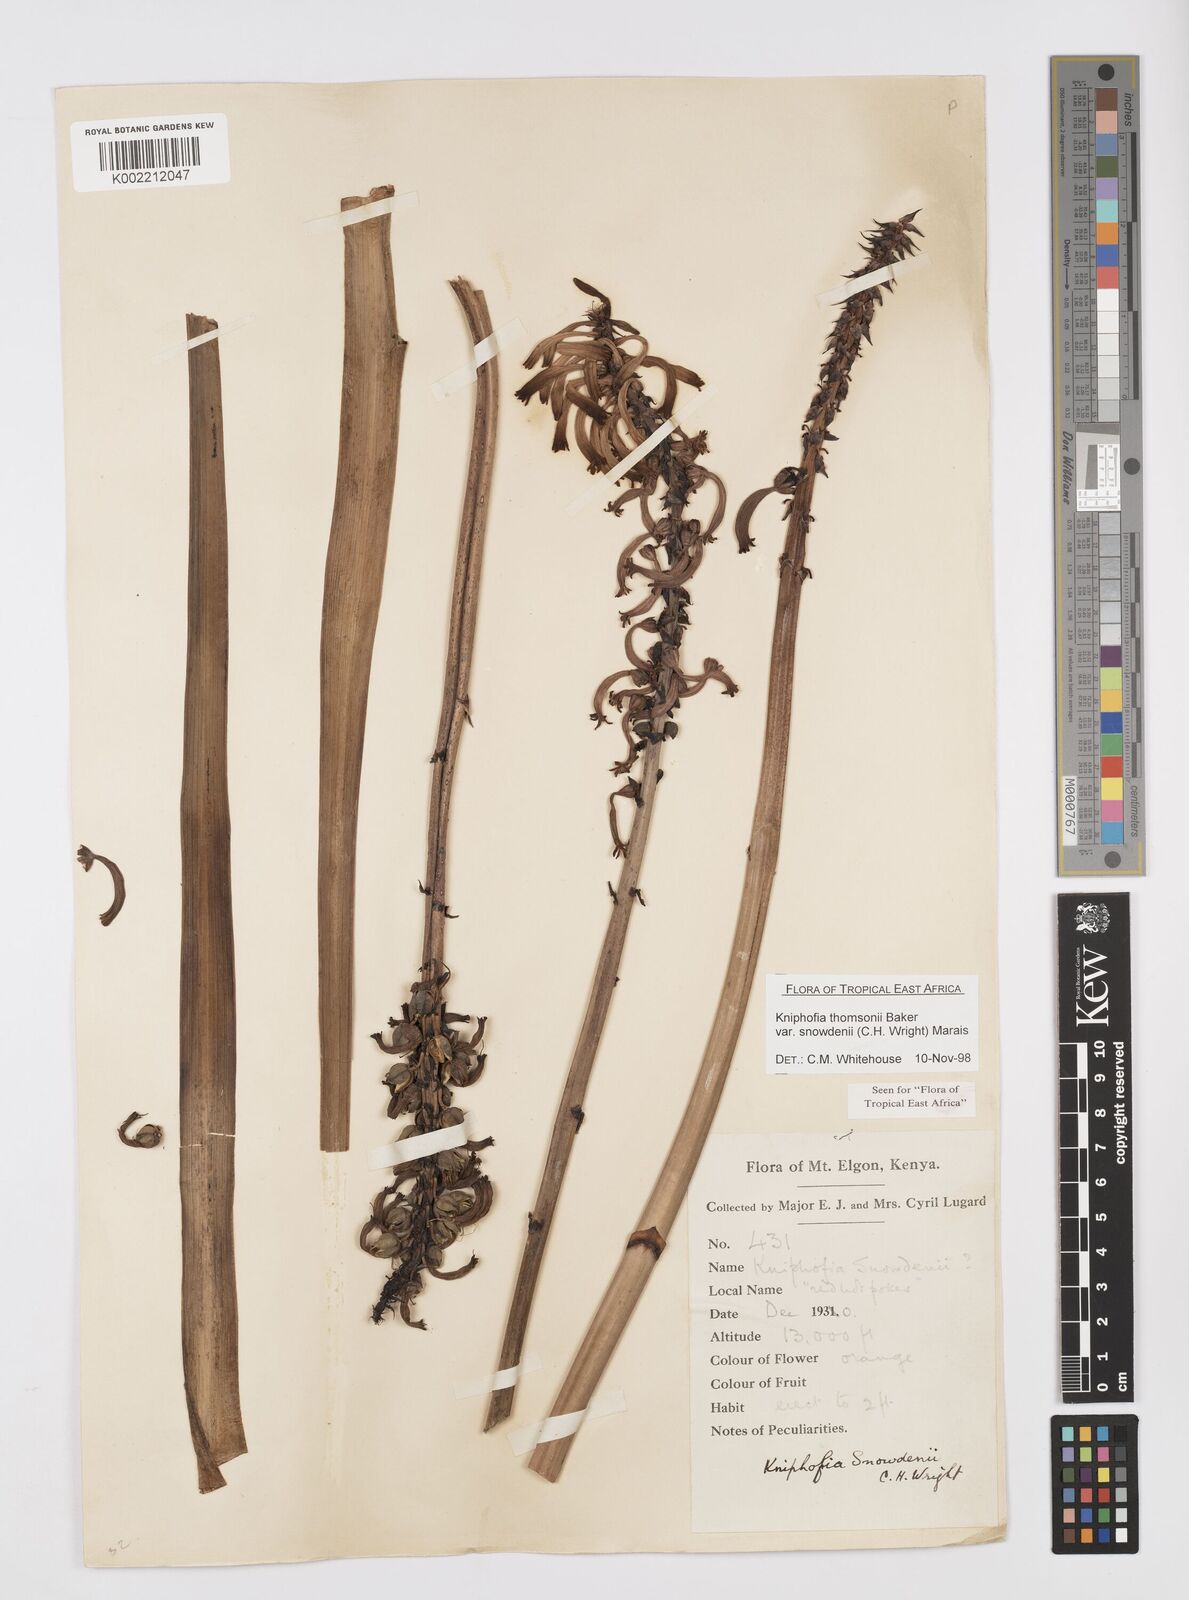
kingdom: Plantae
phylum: Tracheophyta
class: Liliopsida
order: Asparagales
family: Asphodelaceae
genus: Kniphofia
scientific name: Kniphofia
